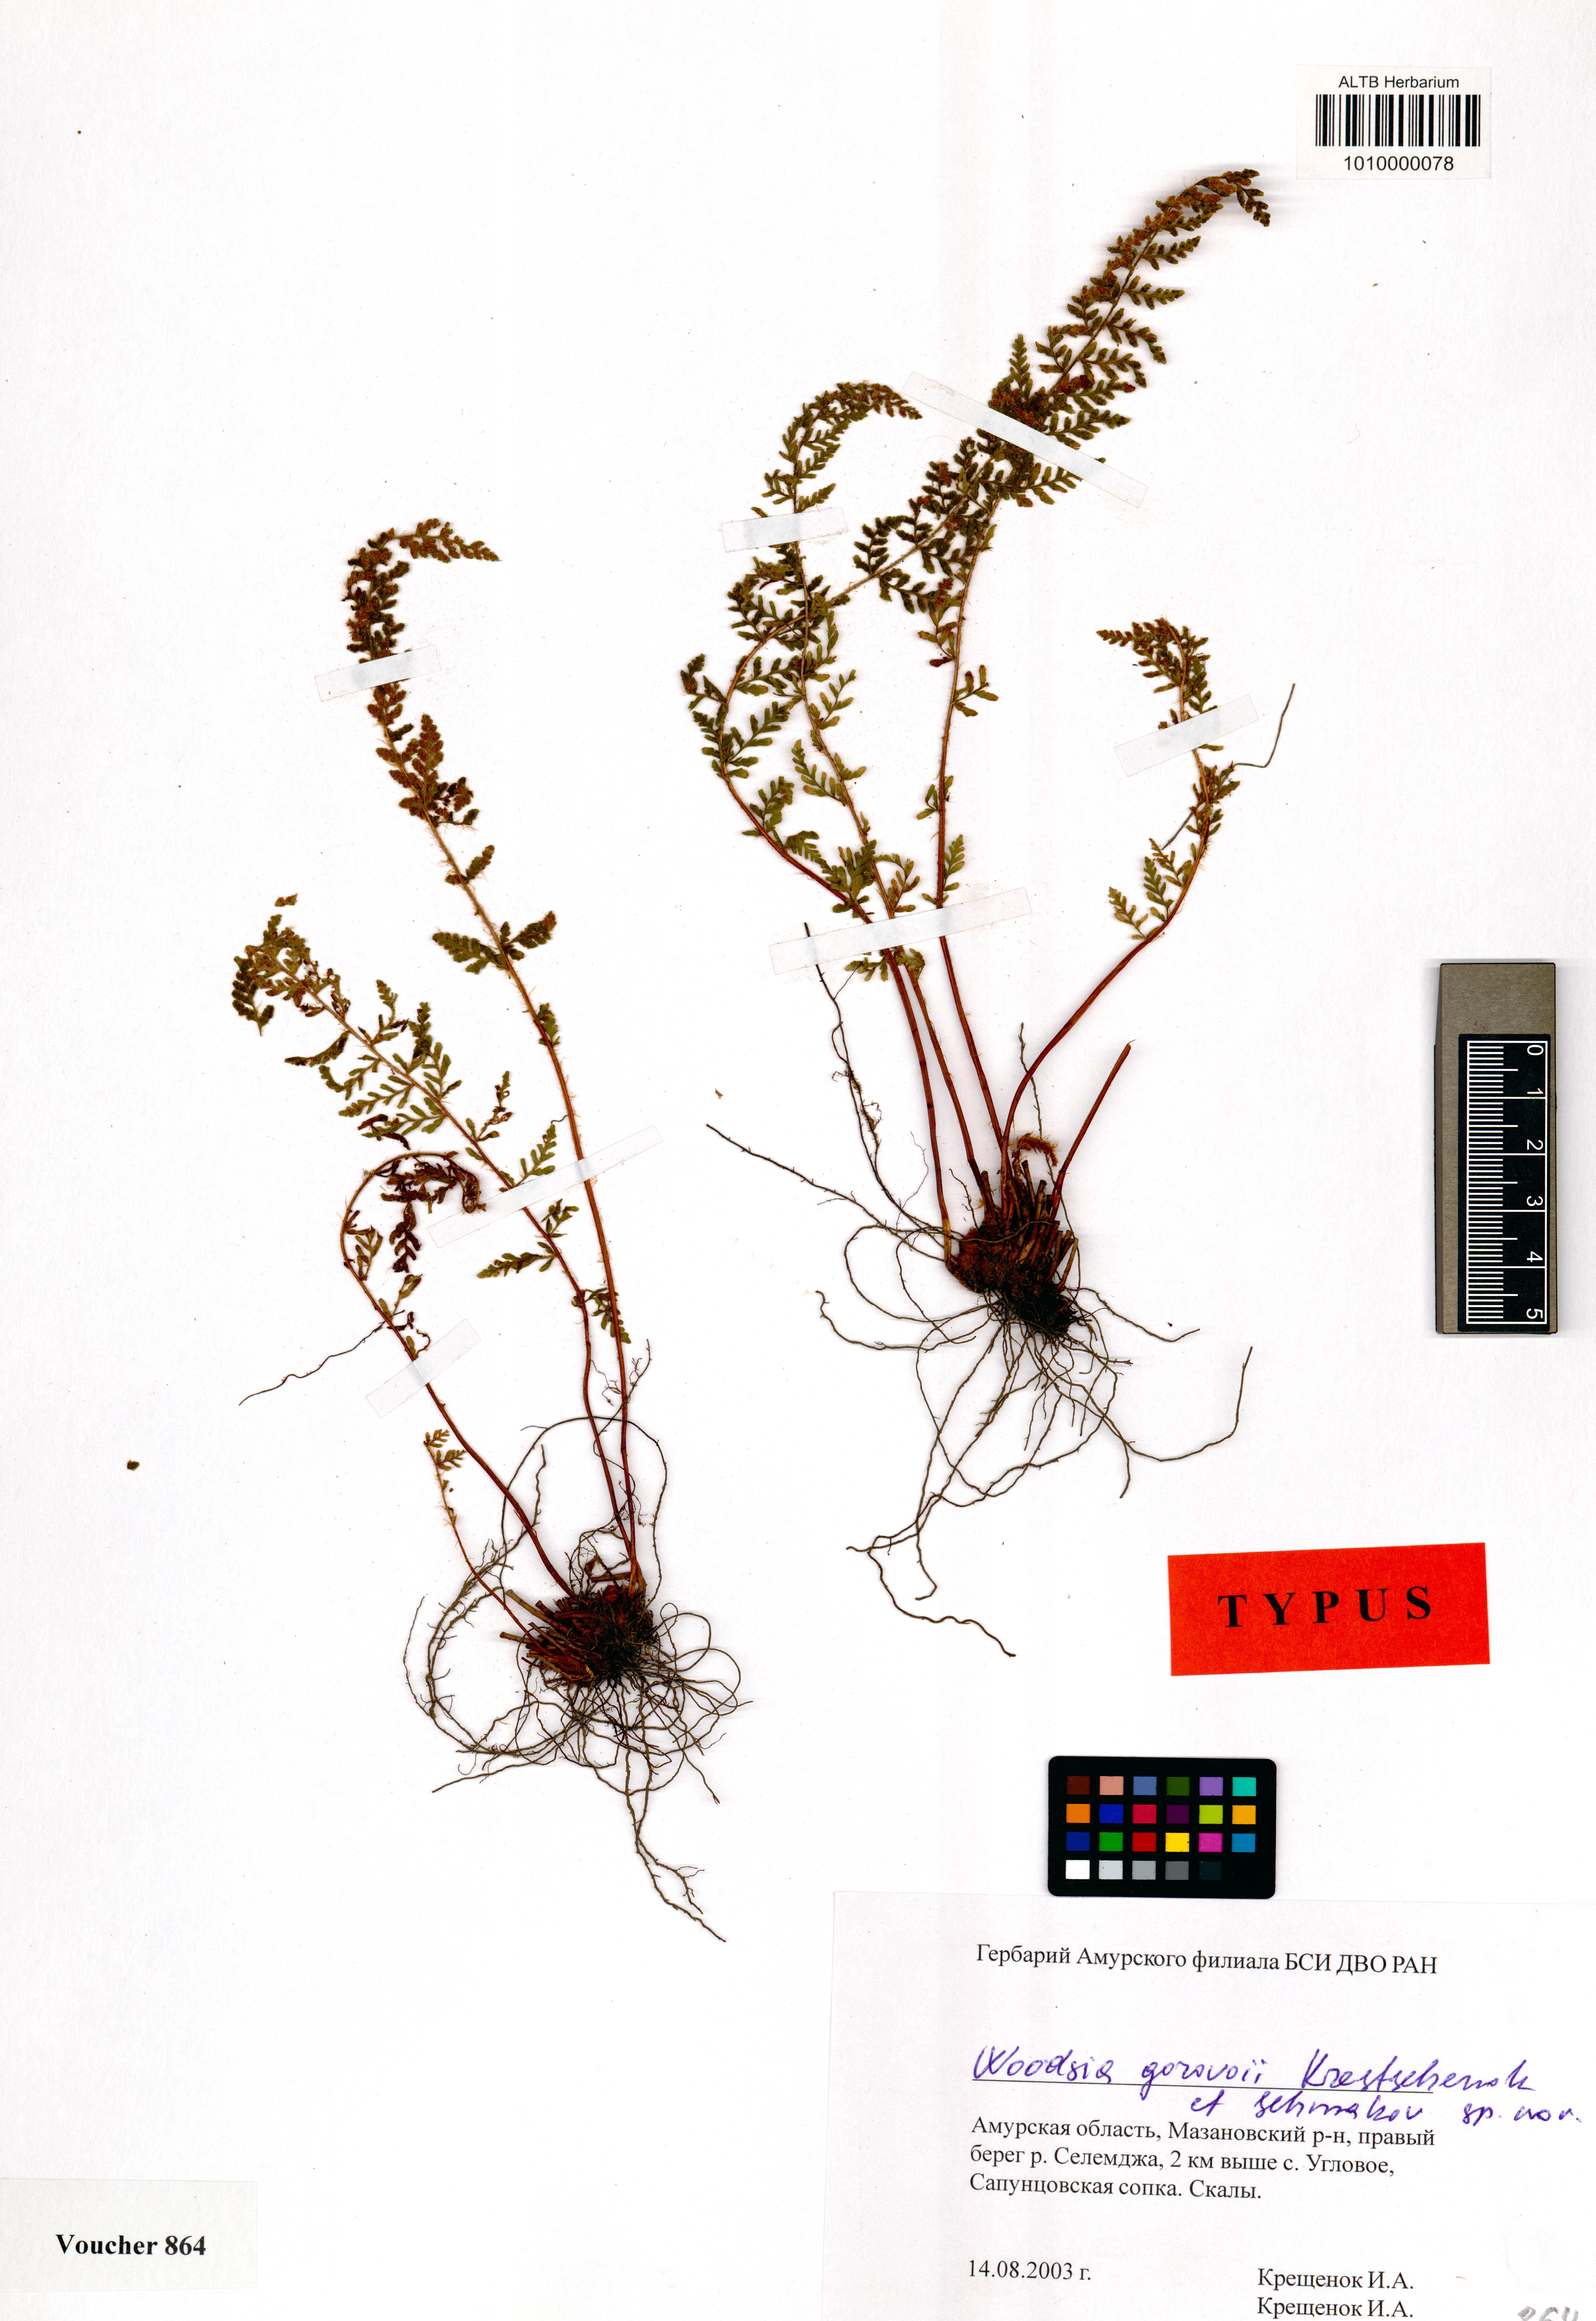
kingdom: Plantae
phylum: Tracheophyta
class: Polypodiopsida
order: Polypodiales
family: Woodsiaceae
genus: Woodsia
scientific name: Woodsia gorovoii
